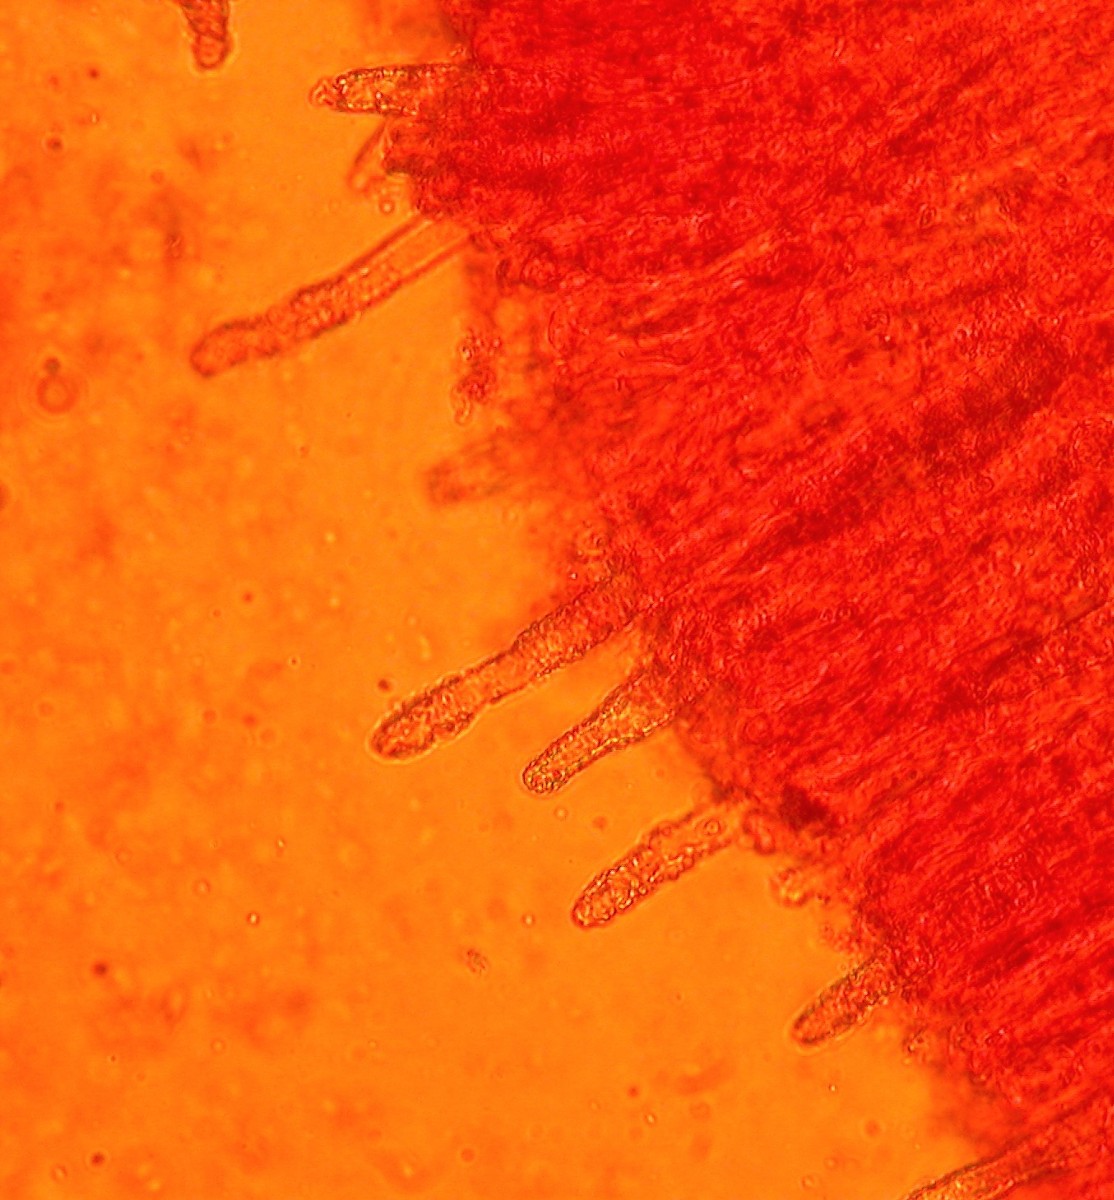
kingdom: Fungi
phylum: Basidiomycota
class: Agaricomycetes
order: Polyporales
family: Phanerochaetaceae
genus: Phanerochaete
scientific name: Phanerochaete sordida
